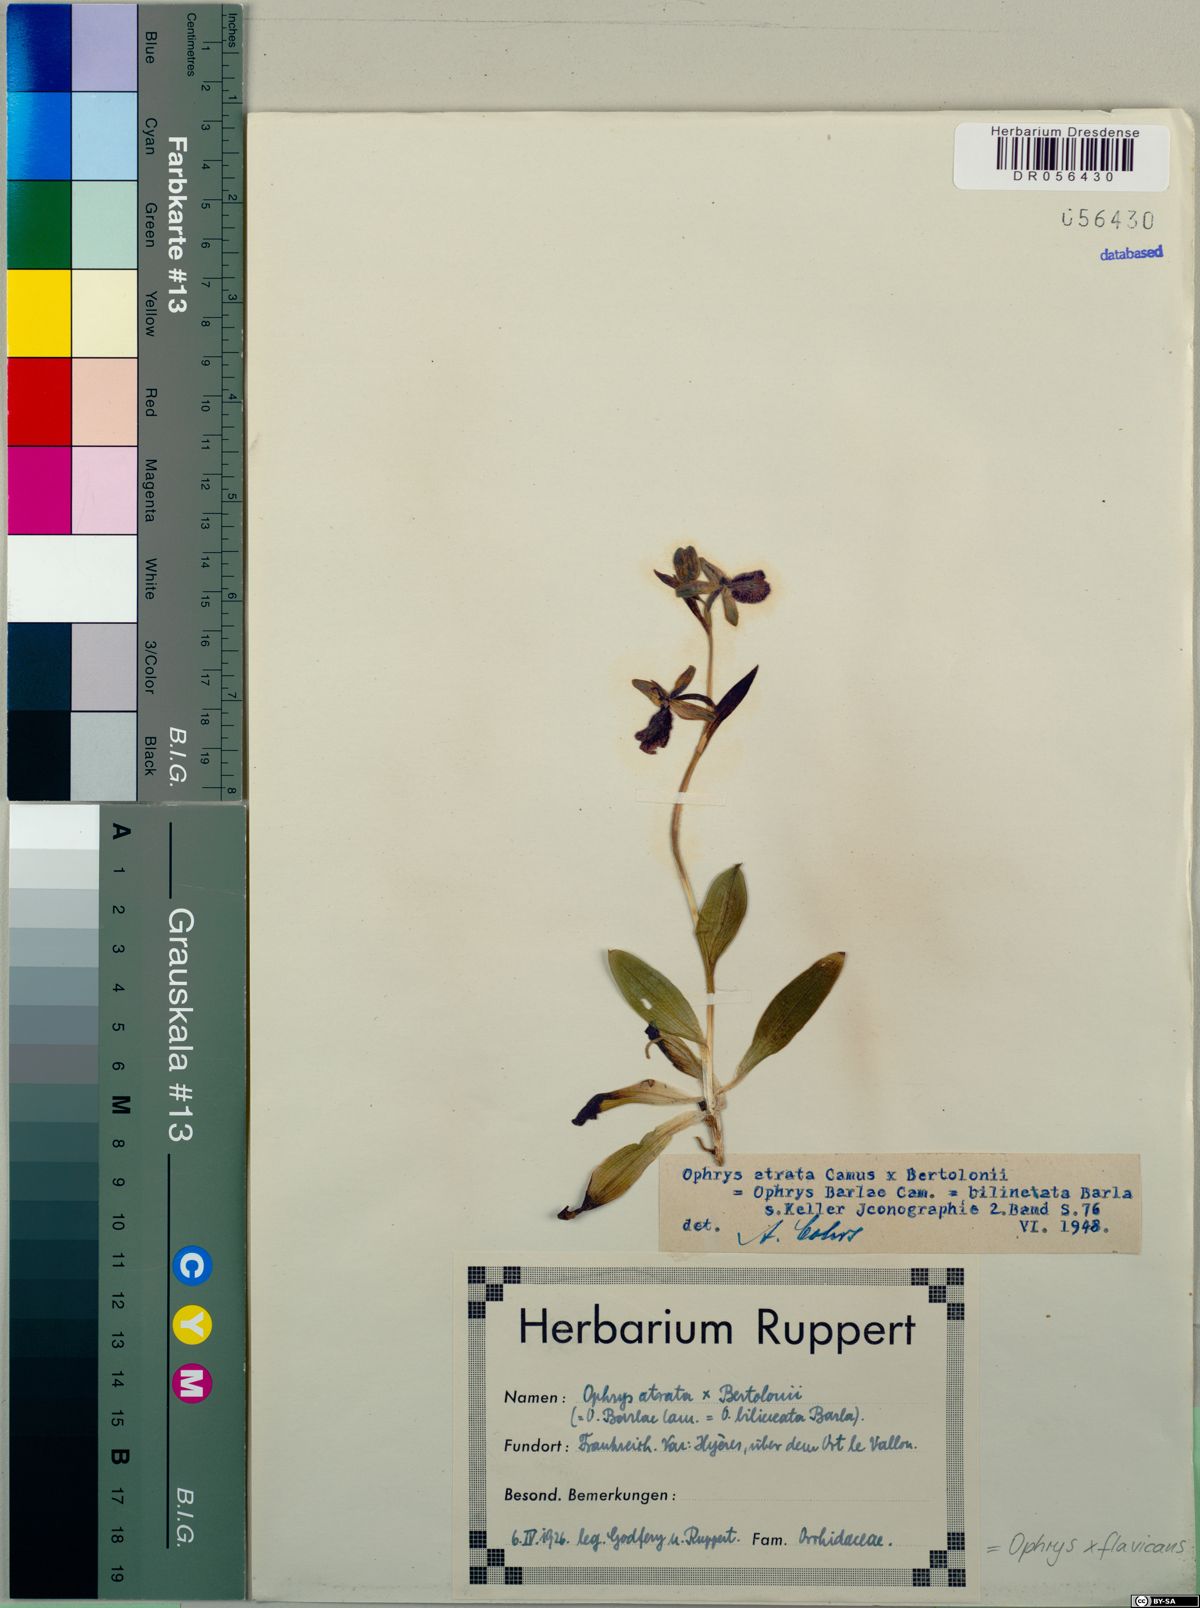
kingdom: Plantae
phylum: Tracheophyta
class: Liliopsida
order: Asparagales
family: Orchidaceae
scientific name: Orchidaceae
